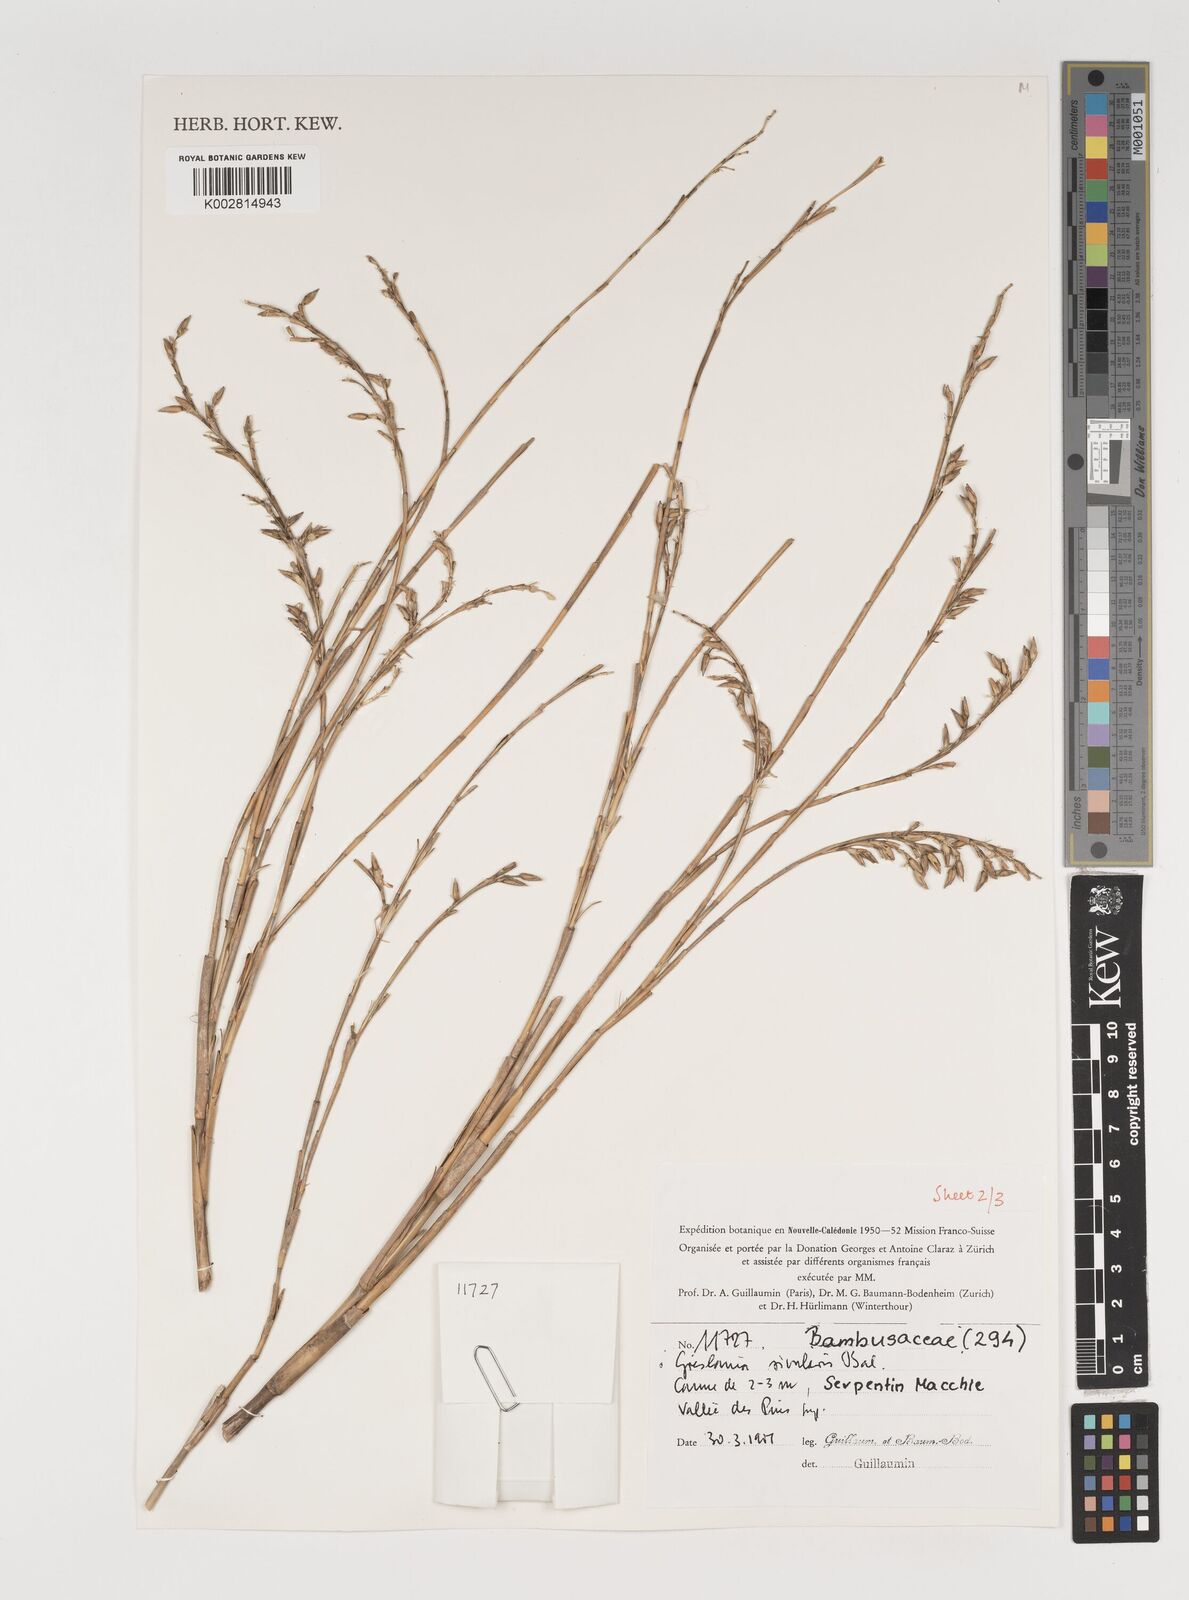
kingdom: Plantae
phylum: Tracheophyta
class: Liliopsida
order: Poales
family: Poaceae
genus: Greslania
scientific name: Greslania rivularis
